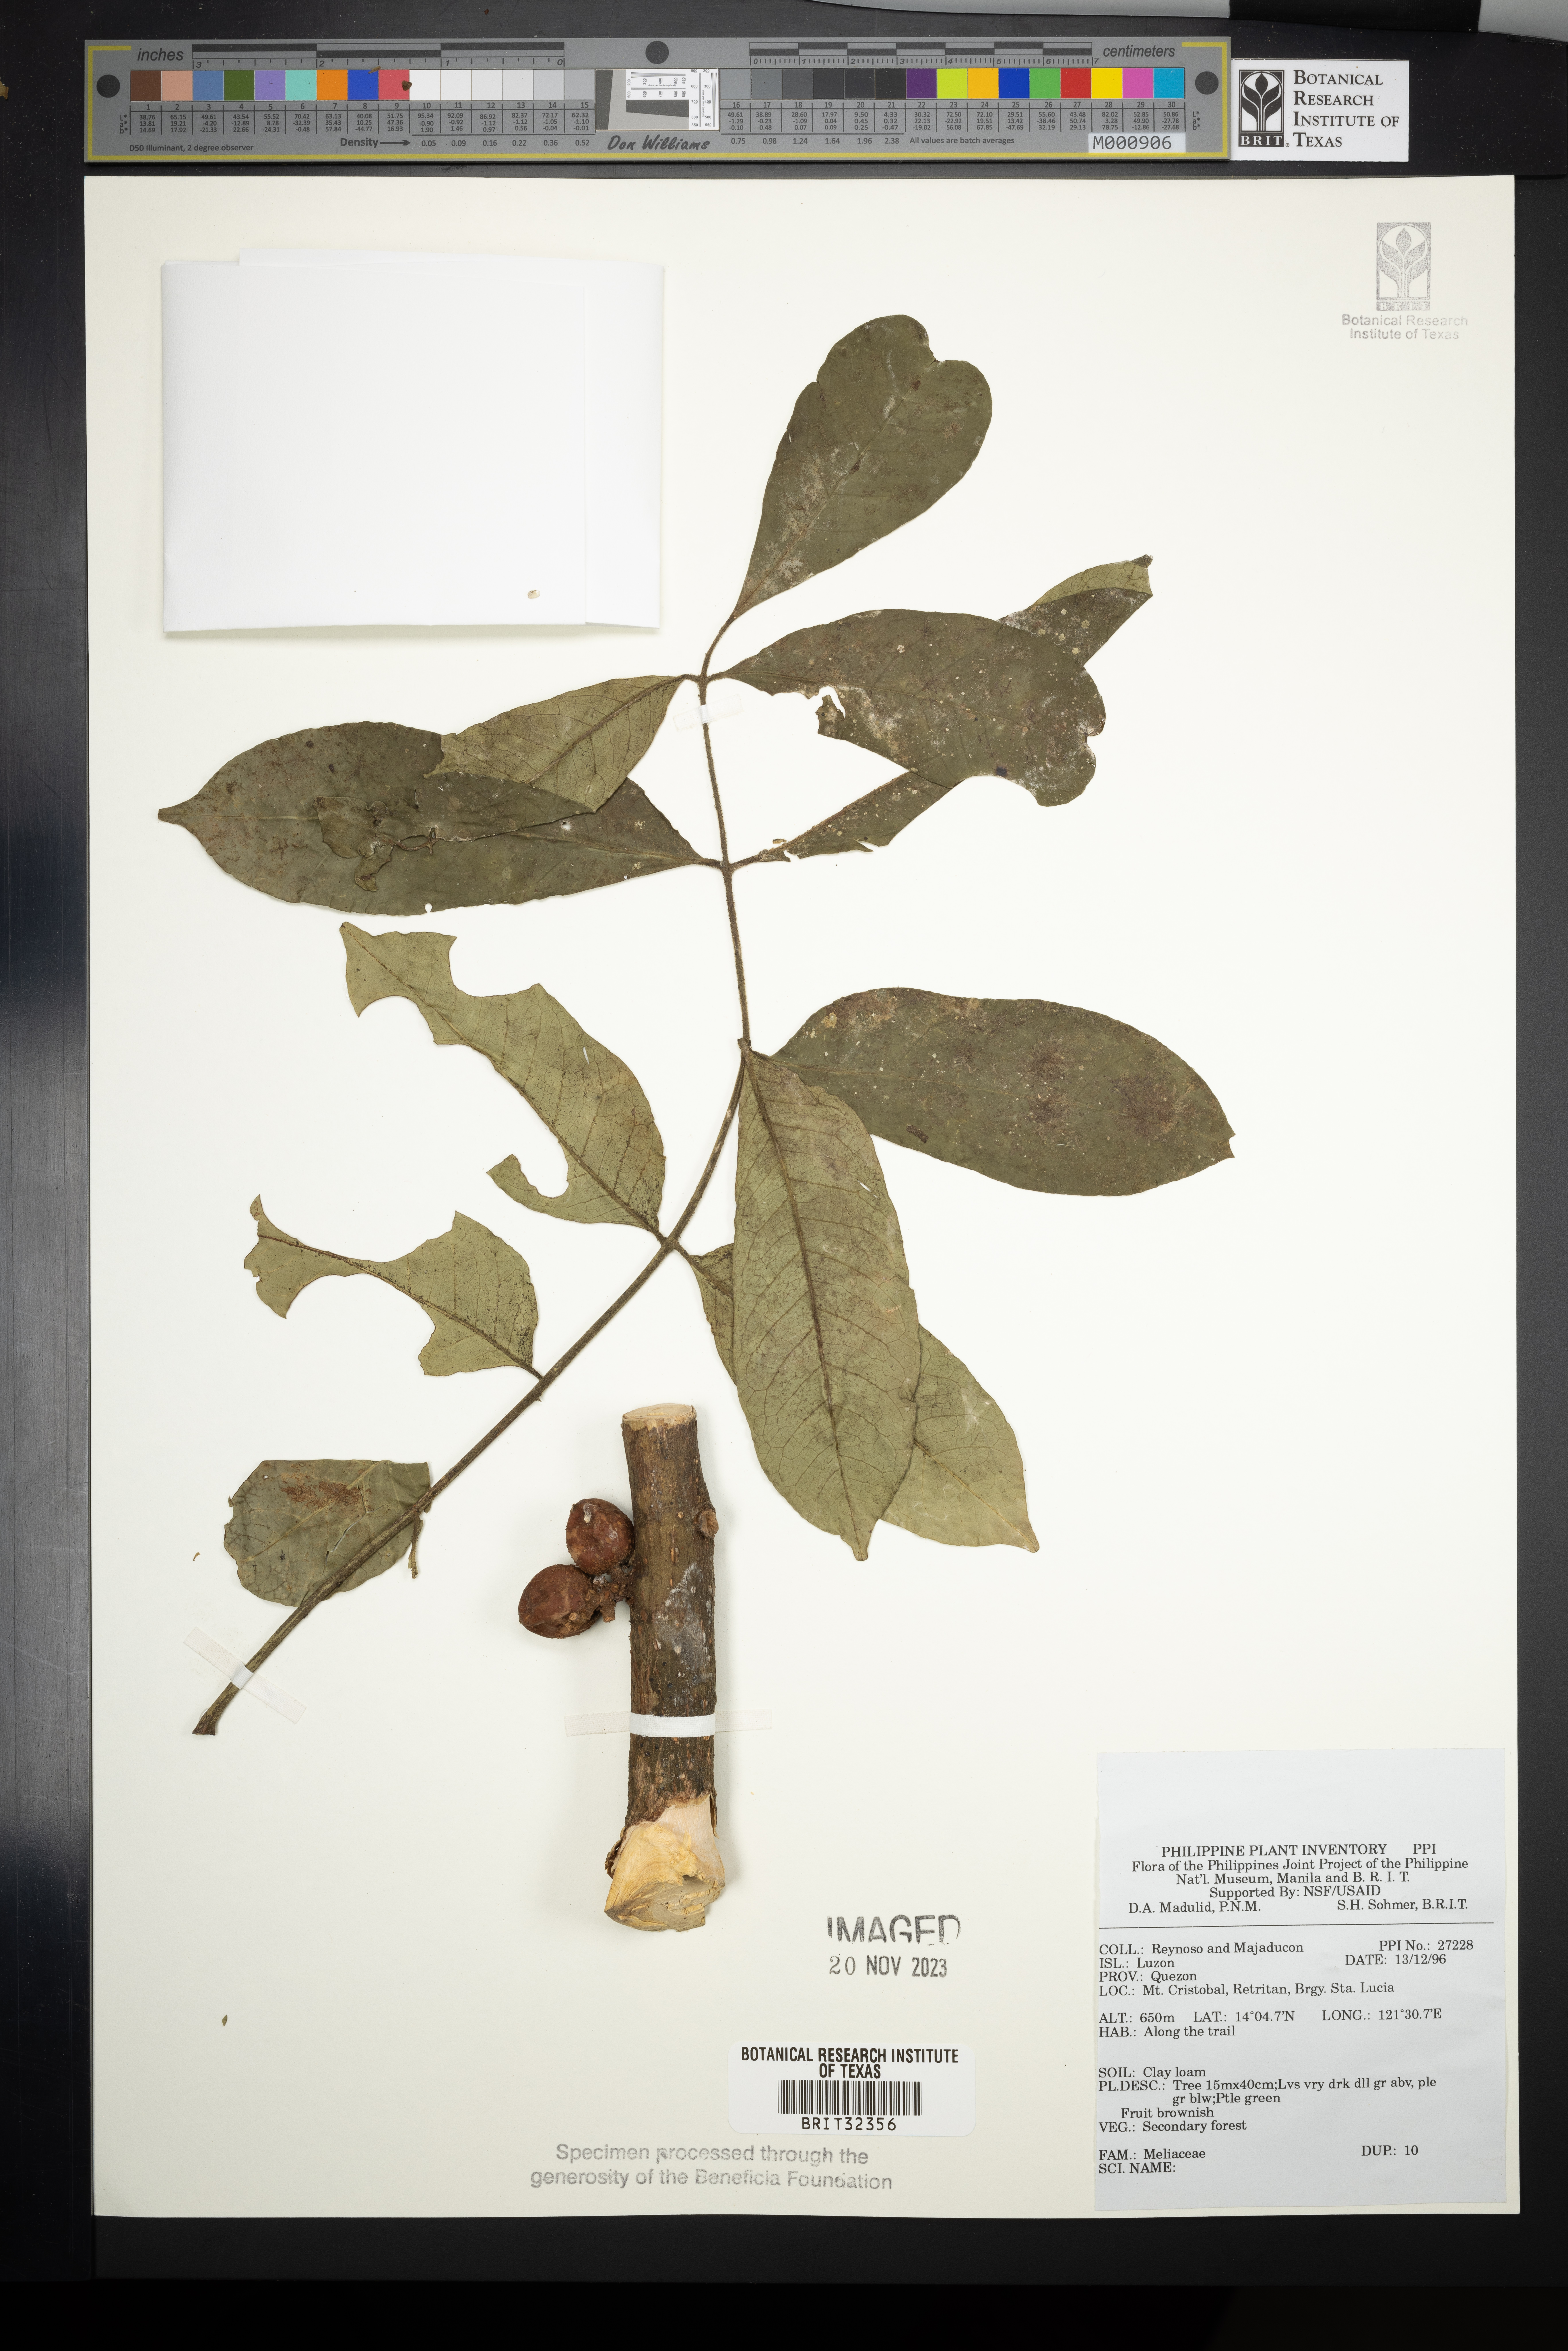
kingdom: Plantae
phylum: Tracheophyta
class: Magnoliopsida
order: Sapindales
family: Meliaceae
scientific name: Meliaceae
